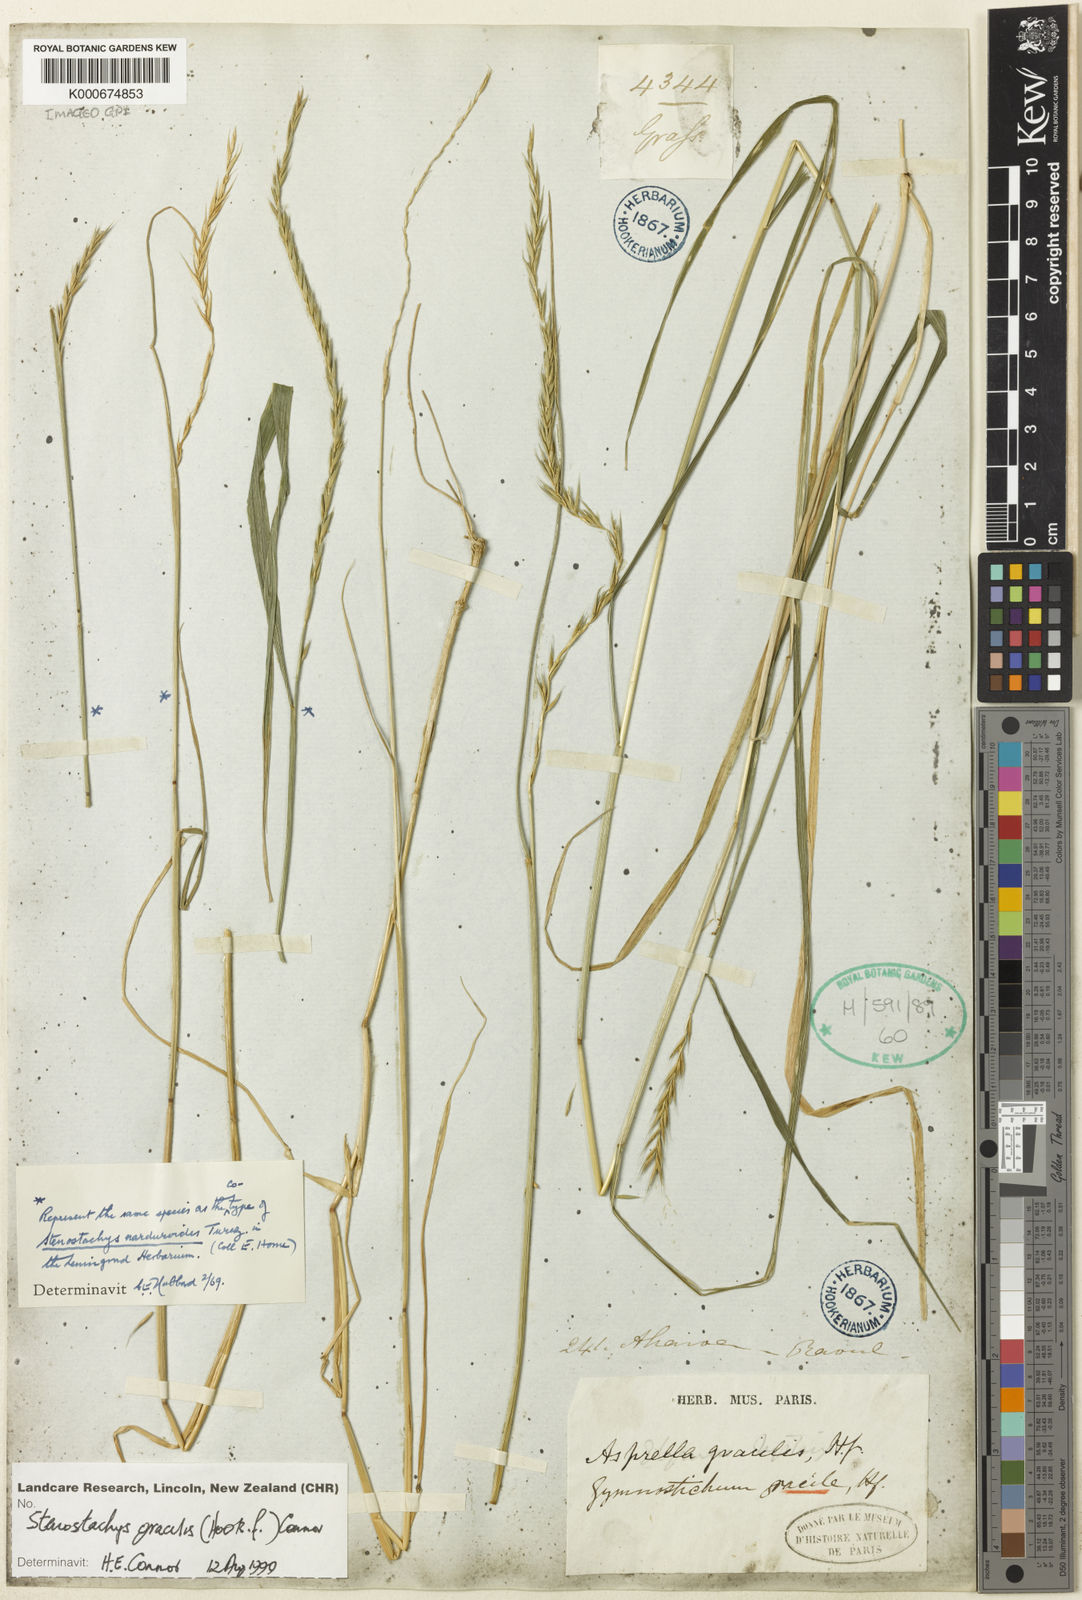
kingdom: Plantae
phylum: Tracheophyta
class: Liliopsida
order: Poales
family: Poaceae
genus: Hystrix
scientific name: Hystrix
